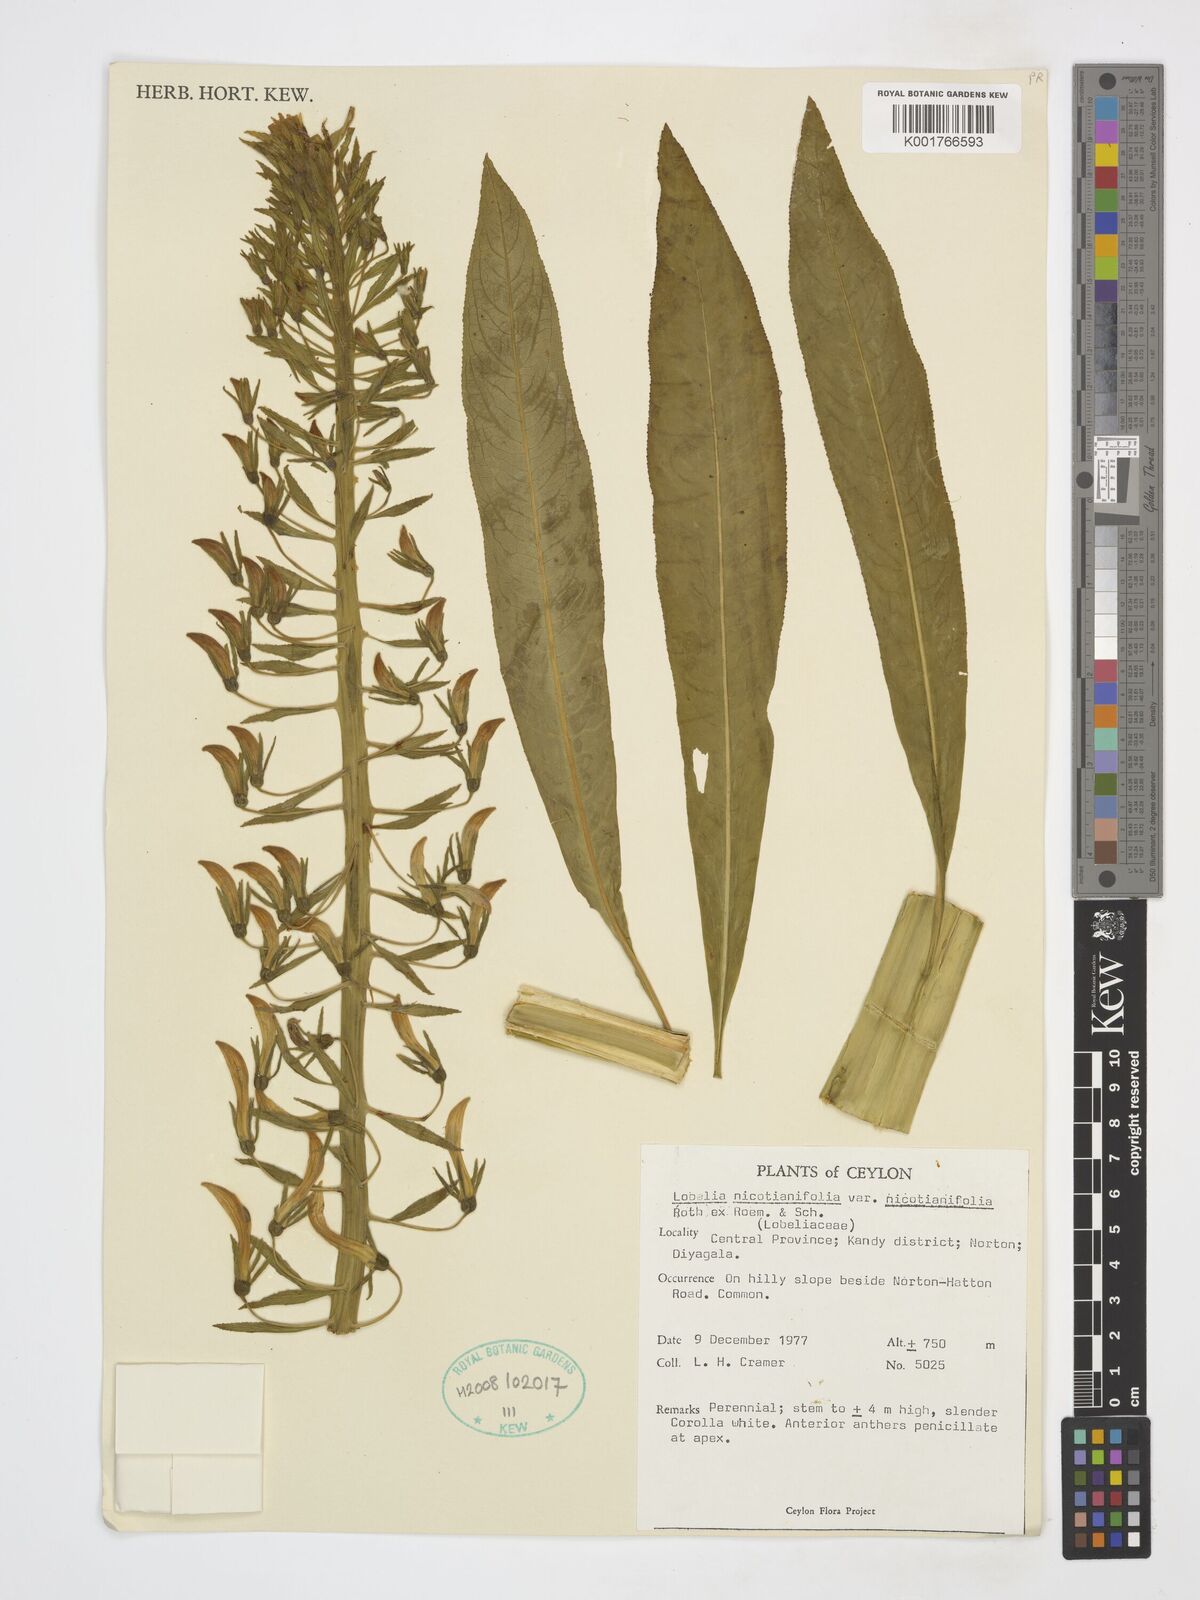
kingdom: Plantae
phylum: Tracheophyta
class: Magnoliopsida
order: Asterales
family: Campanulaceae
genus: Lobelia
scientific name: Lobelia nicotianifolia
